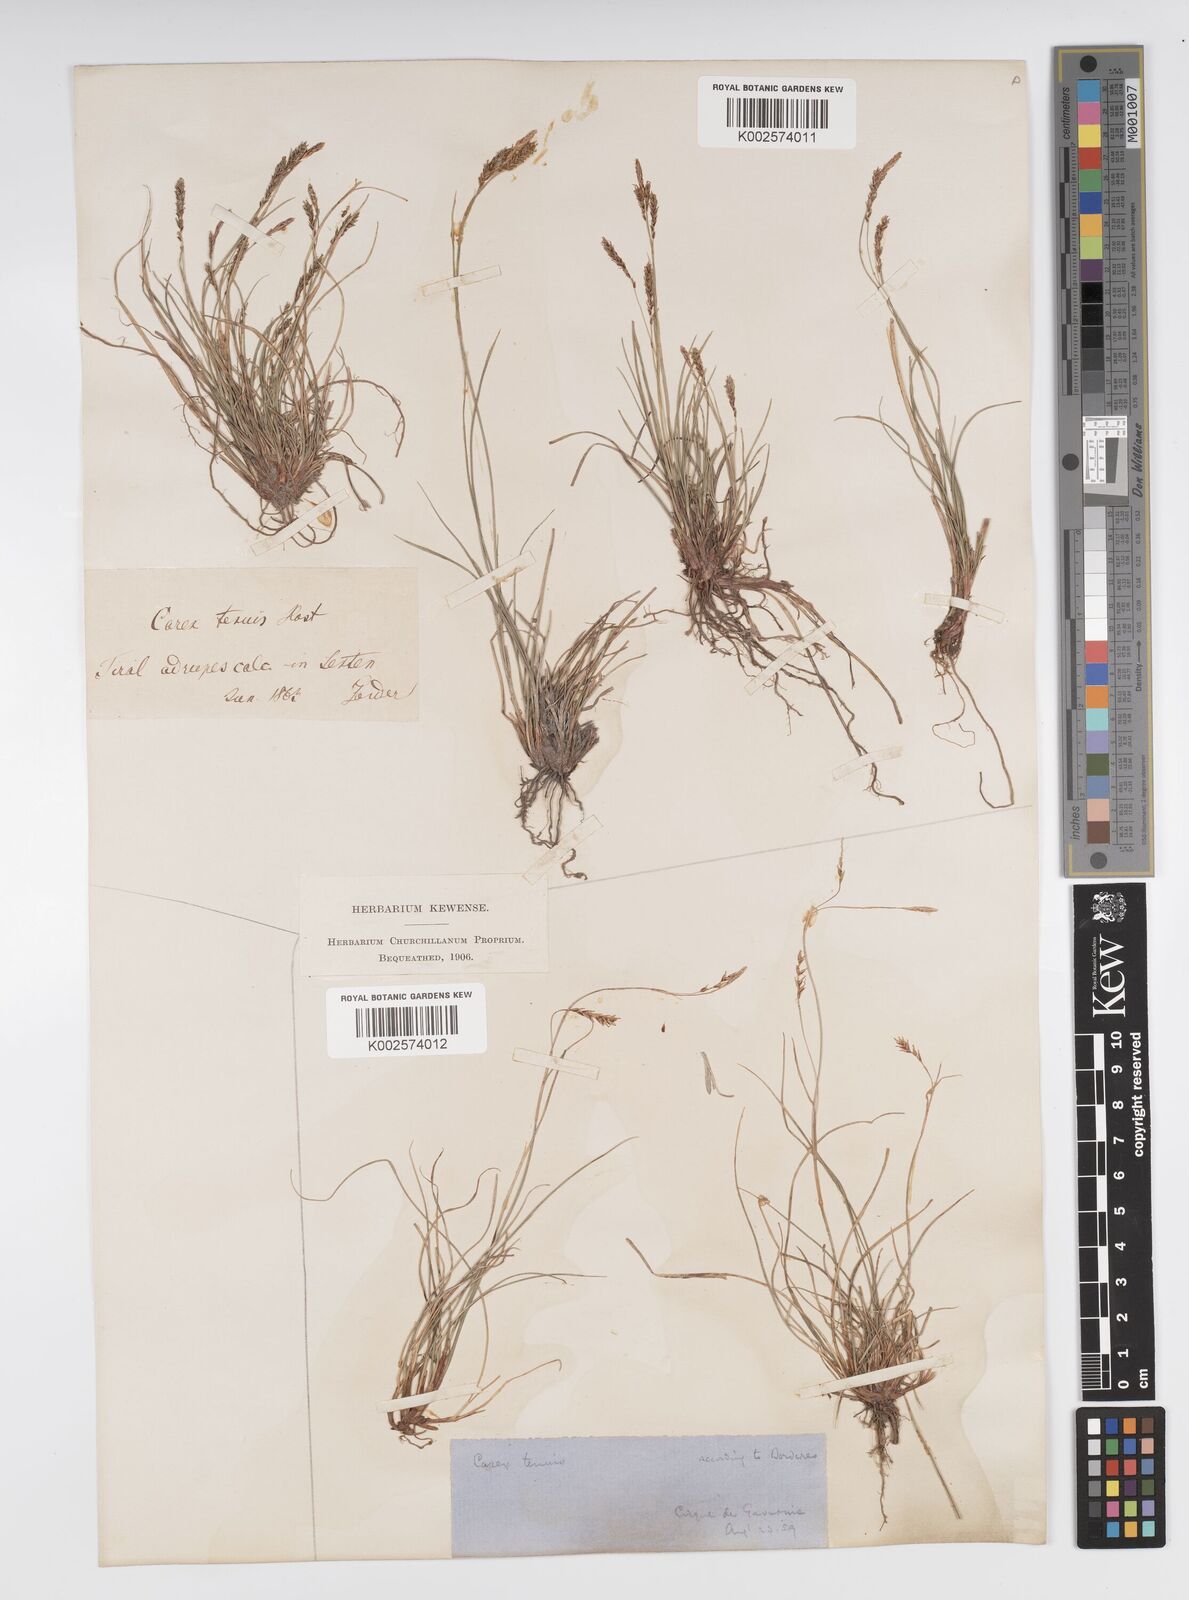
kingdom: Plantae
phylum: Tracheophyta
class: Liliopsida
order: Poales
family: Cyperaceae
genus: Carex
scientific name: Carex brachystachys
